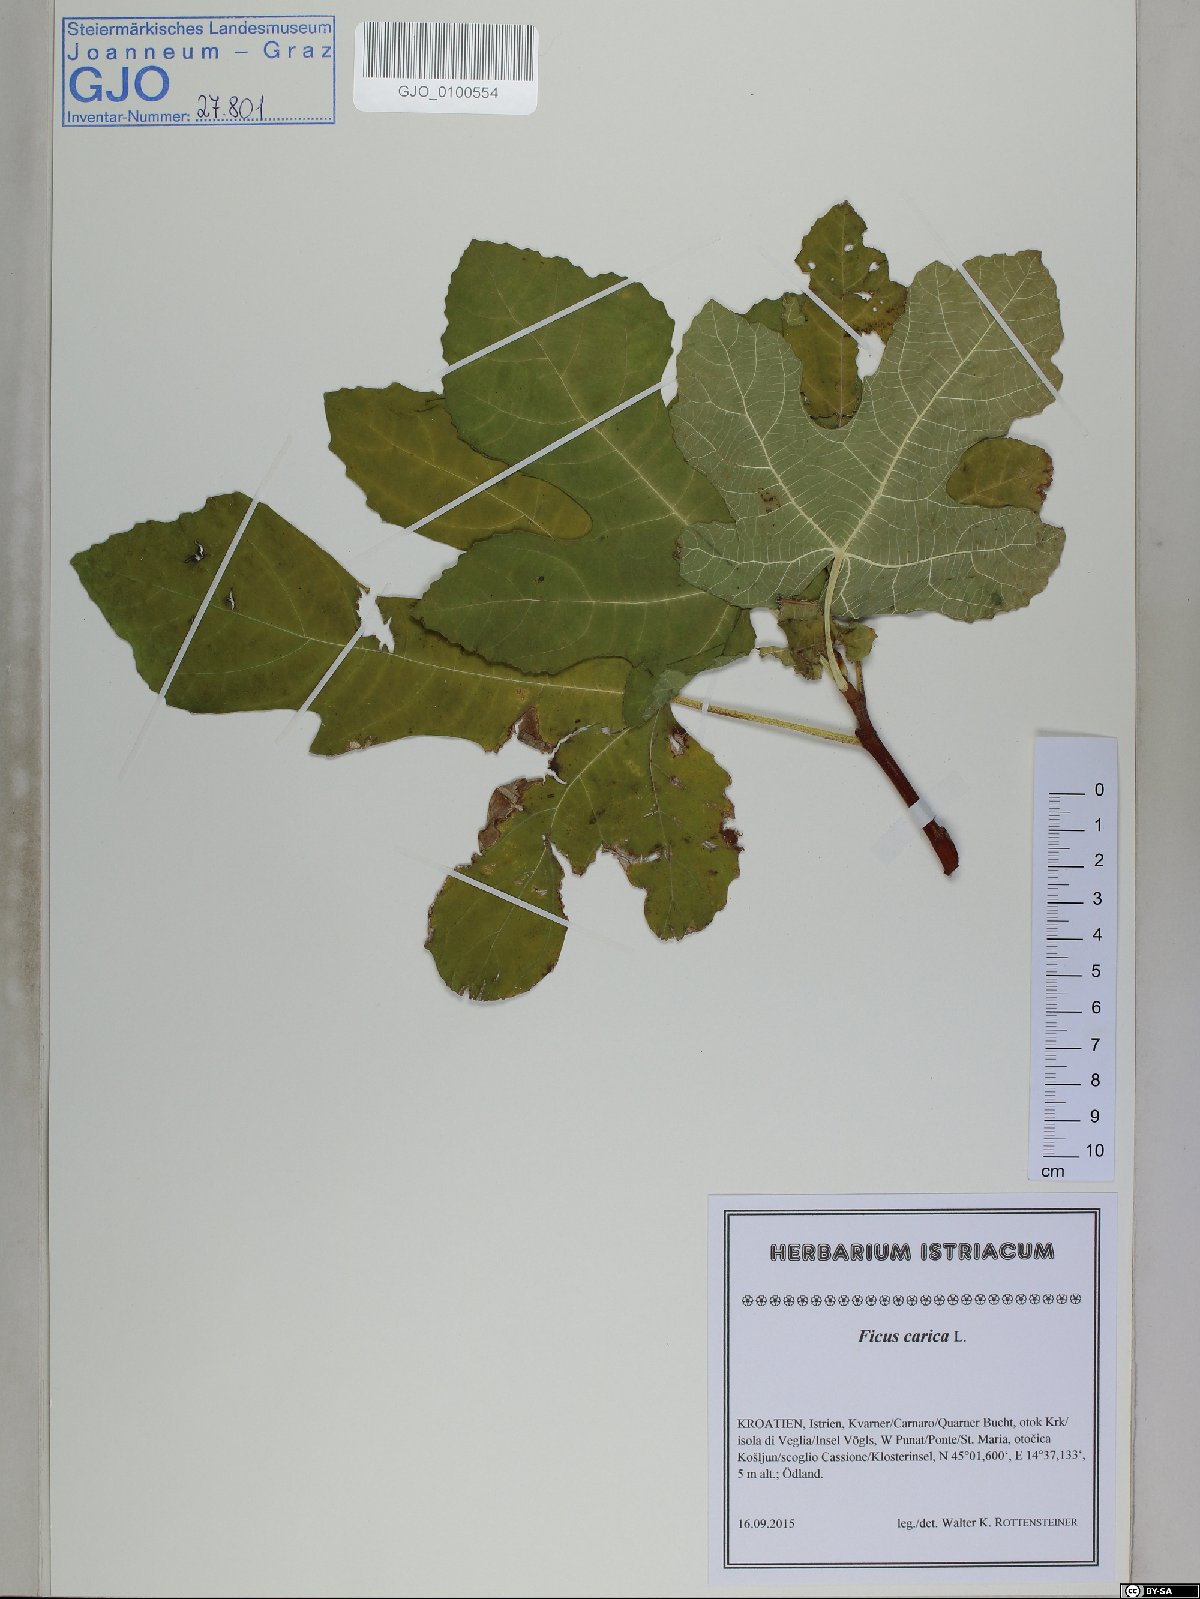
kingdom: Plantae
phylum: Tracheophyta
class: Magnoliopsida
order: Rosales
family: Moraceae
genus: Ficus
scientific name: Ficus carica
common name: Fig
